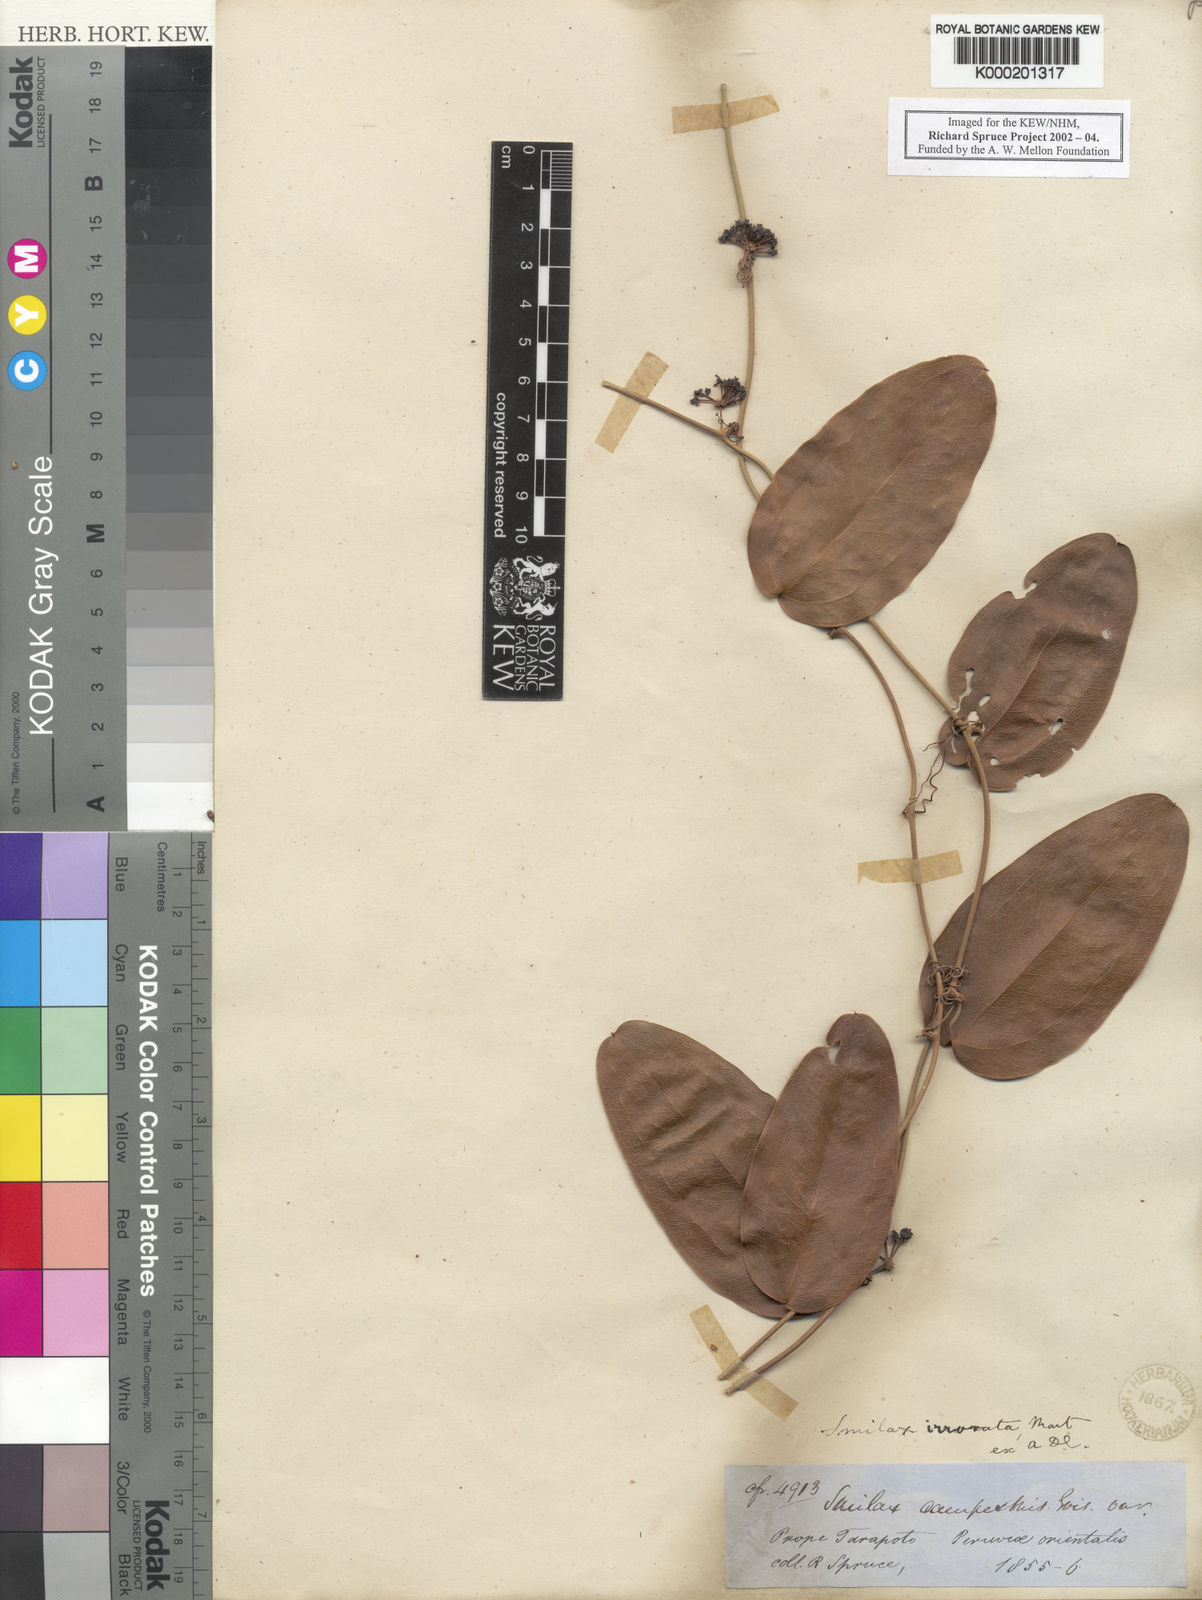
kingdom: Plantae
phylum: Tracheophyta
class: Liliopsida
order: Liliales
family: Smilacaceae
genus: Smilax
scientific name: Smilax irrorata
